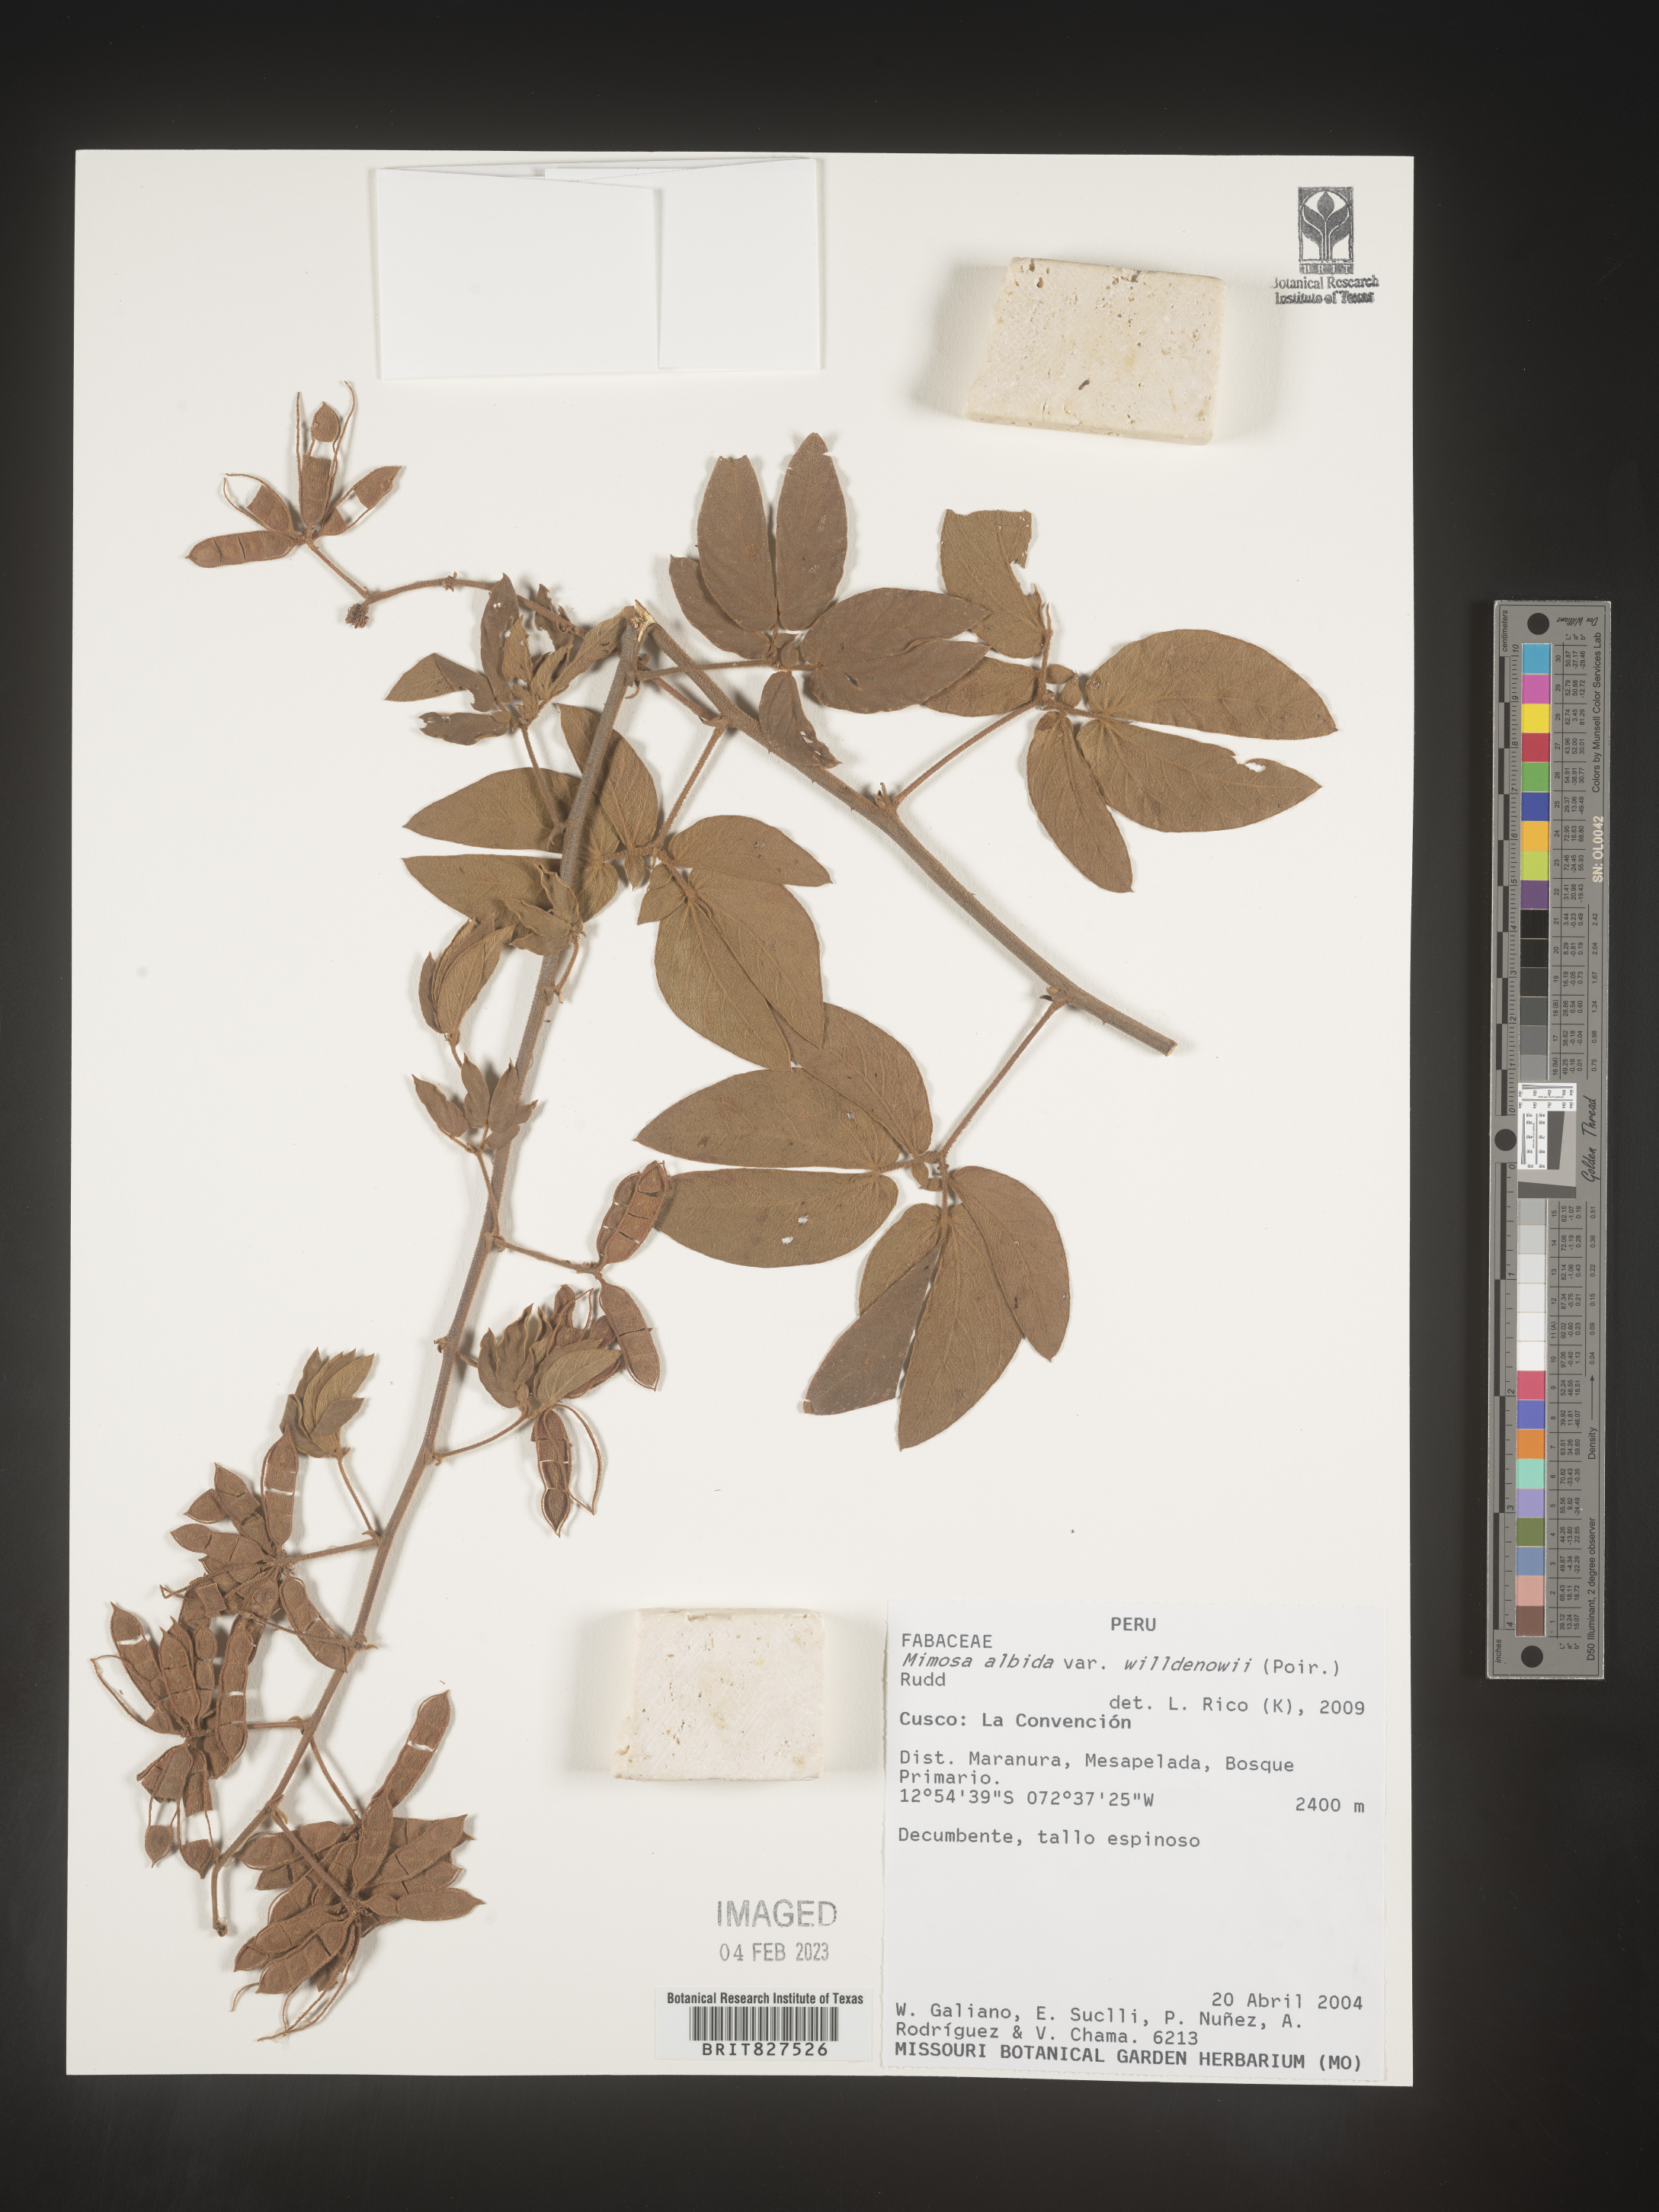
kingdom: Plantae
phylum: Tracheophyta
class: Magnoliopsida
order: Fabales
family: Fabaceae
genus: Mimosa
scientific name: Mimosa
